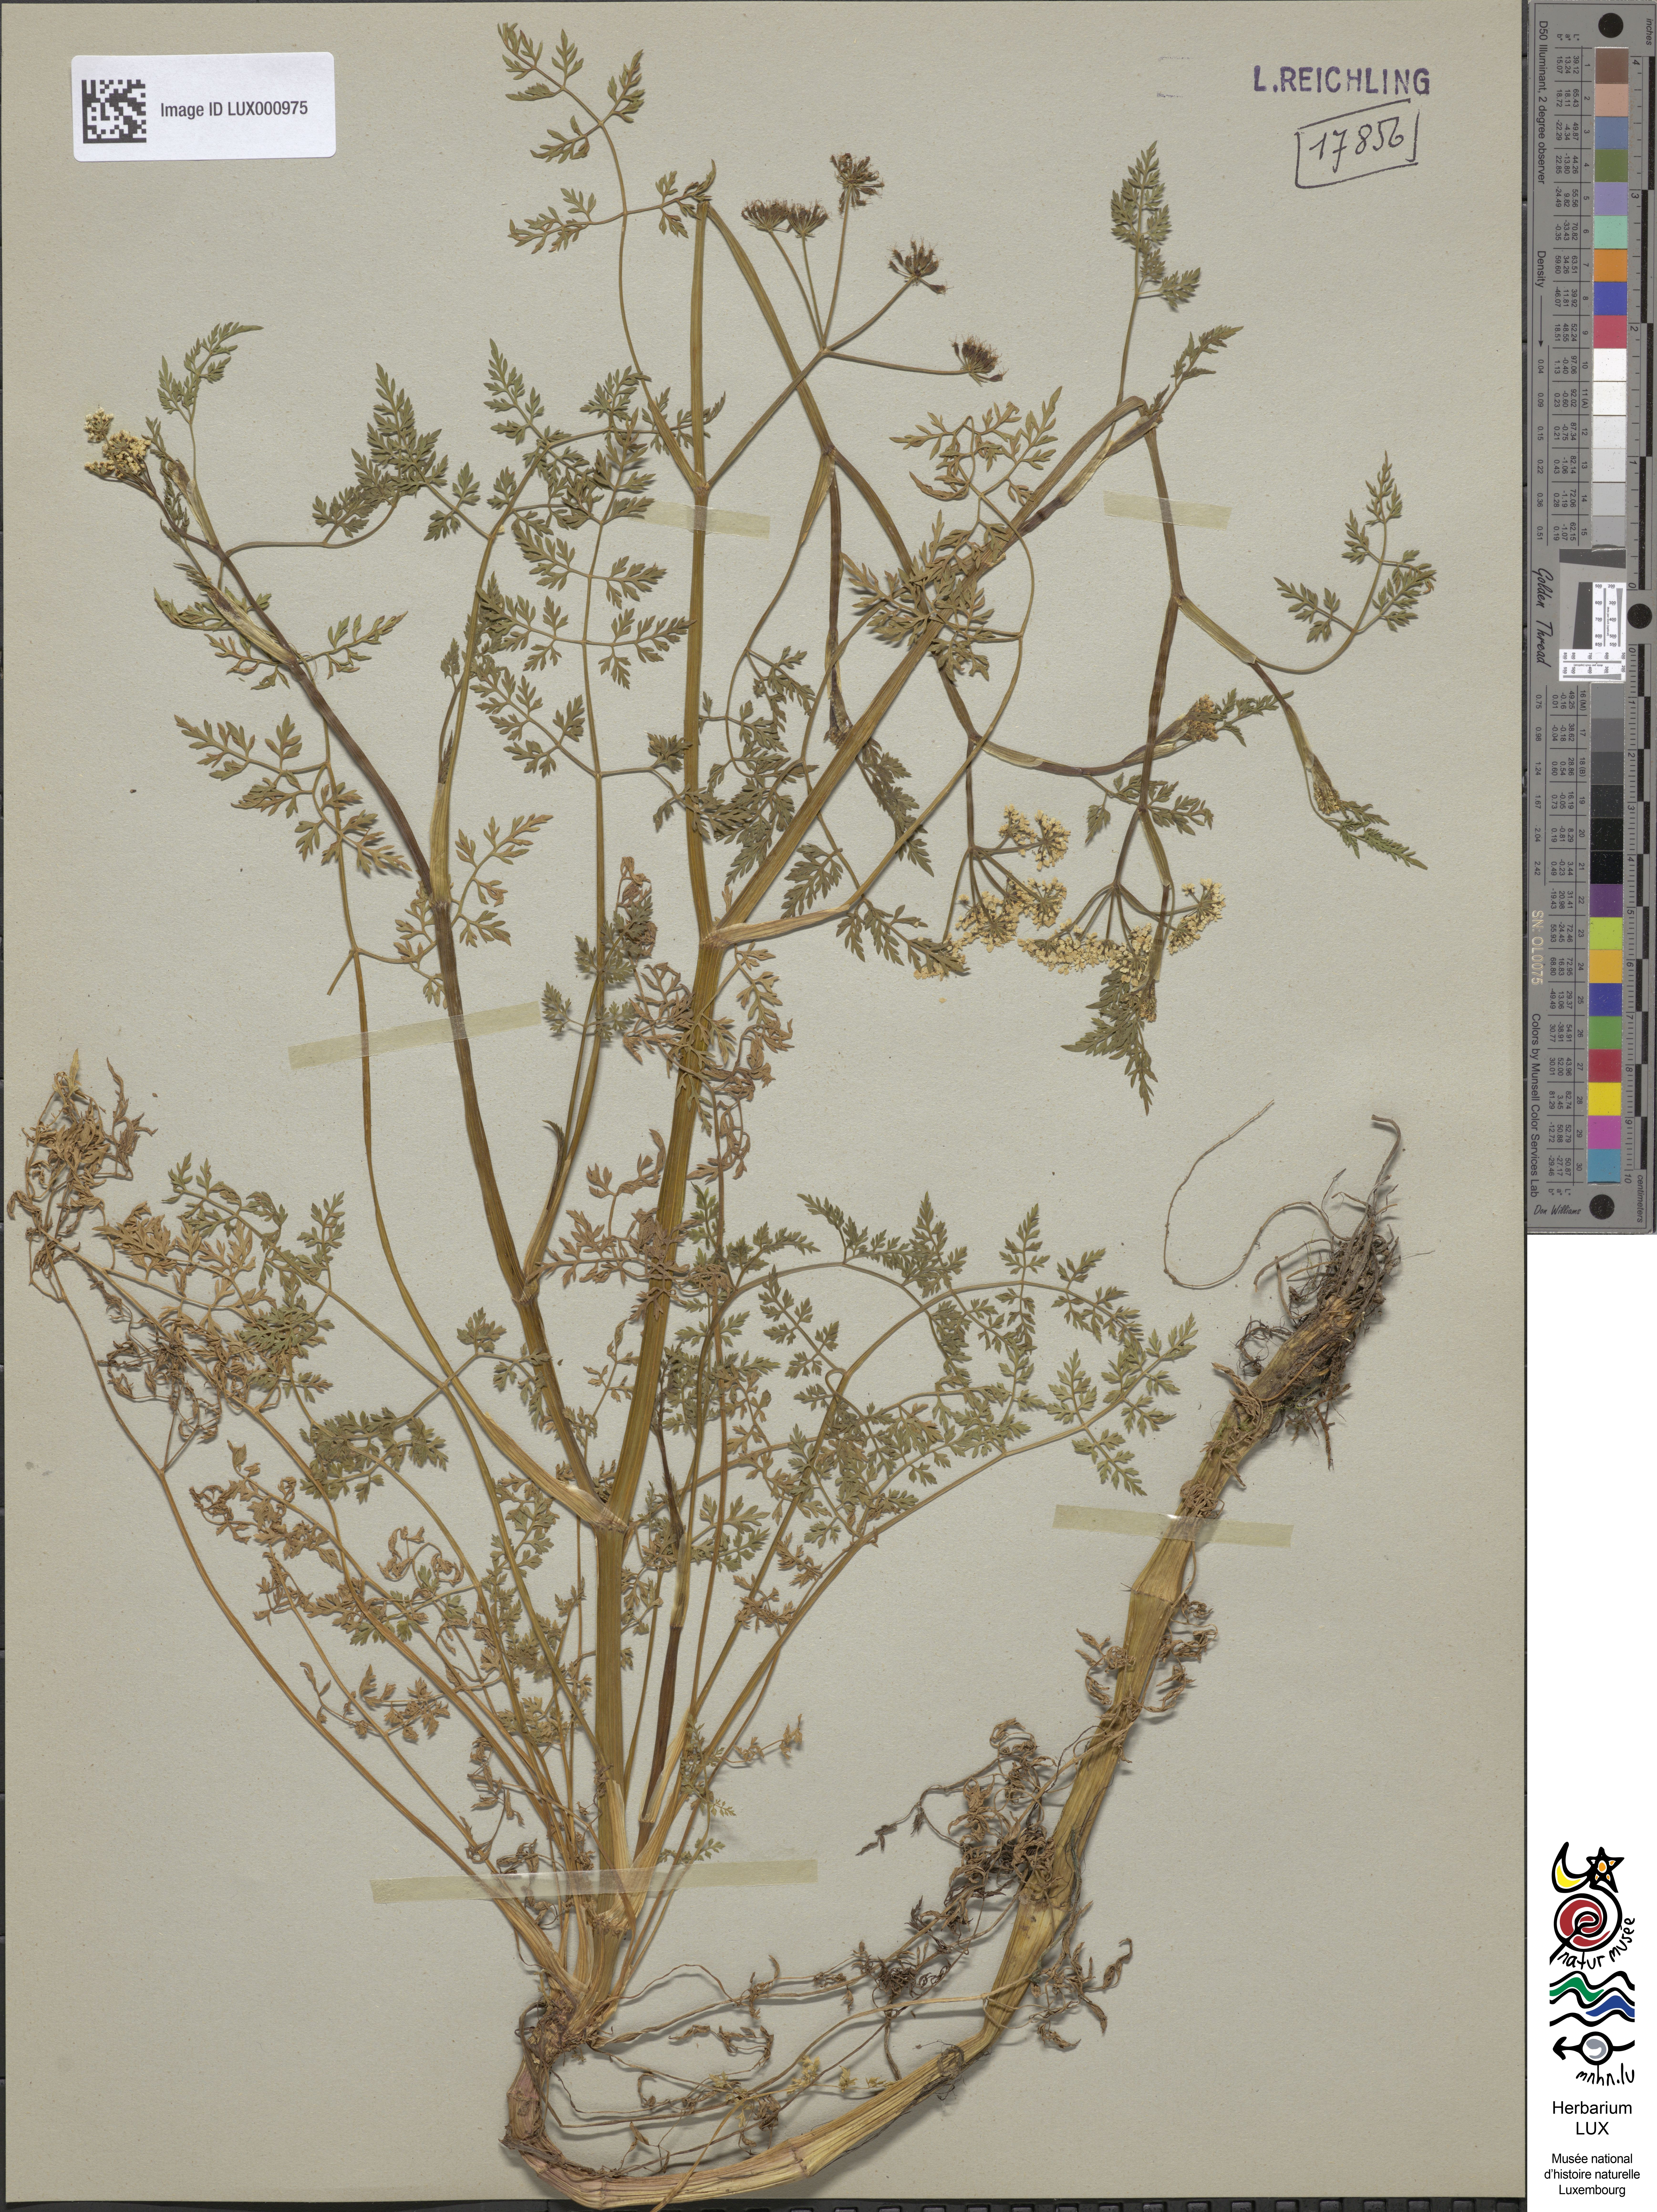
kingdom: Plantae
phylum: Tracheophyta
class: Magnoliopsida
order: Apiales
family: Apiaceae
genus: Oenanthe
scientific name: Oenanthe aquatica
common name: Fine-leaved water-dropwort
